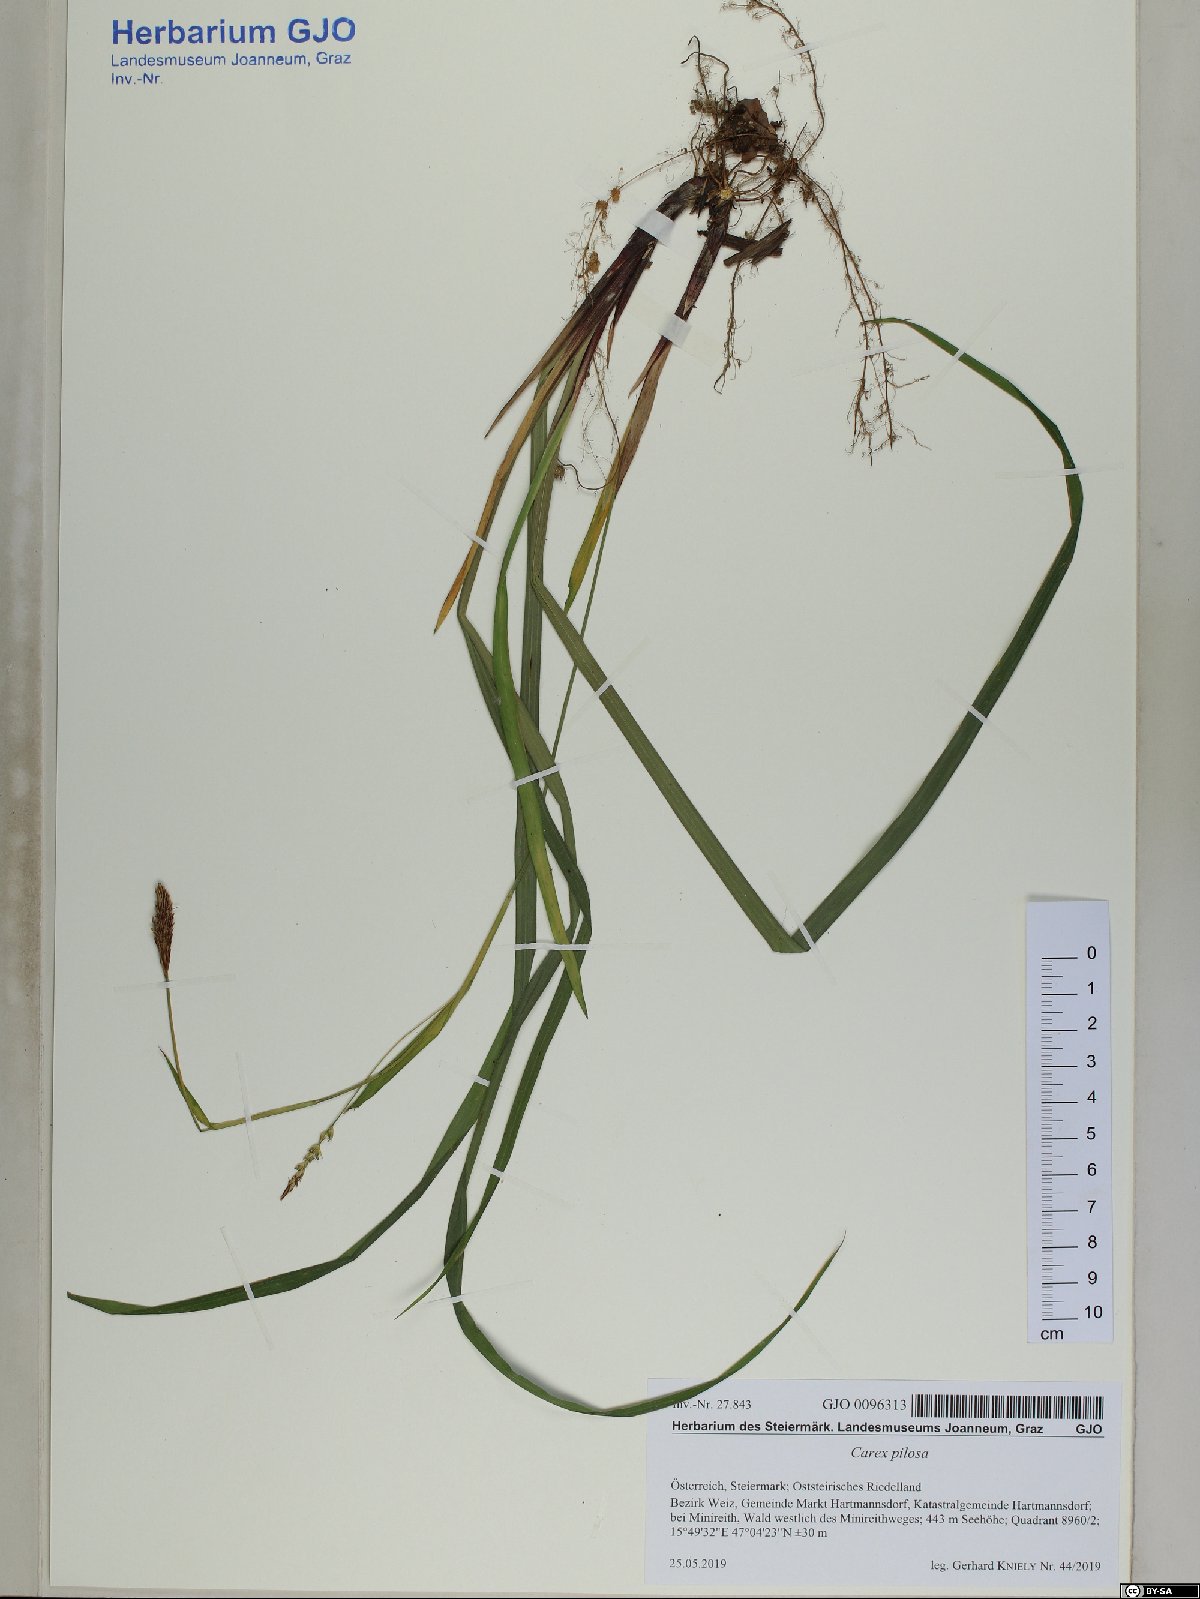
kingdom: Plantae
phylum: Tracheophyta
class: Liliopsida
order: Poales
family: Cyperaceae
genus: Carex
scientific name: Carex pilosa
